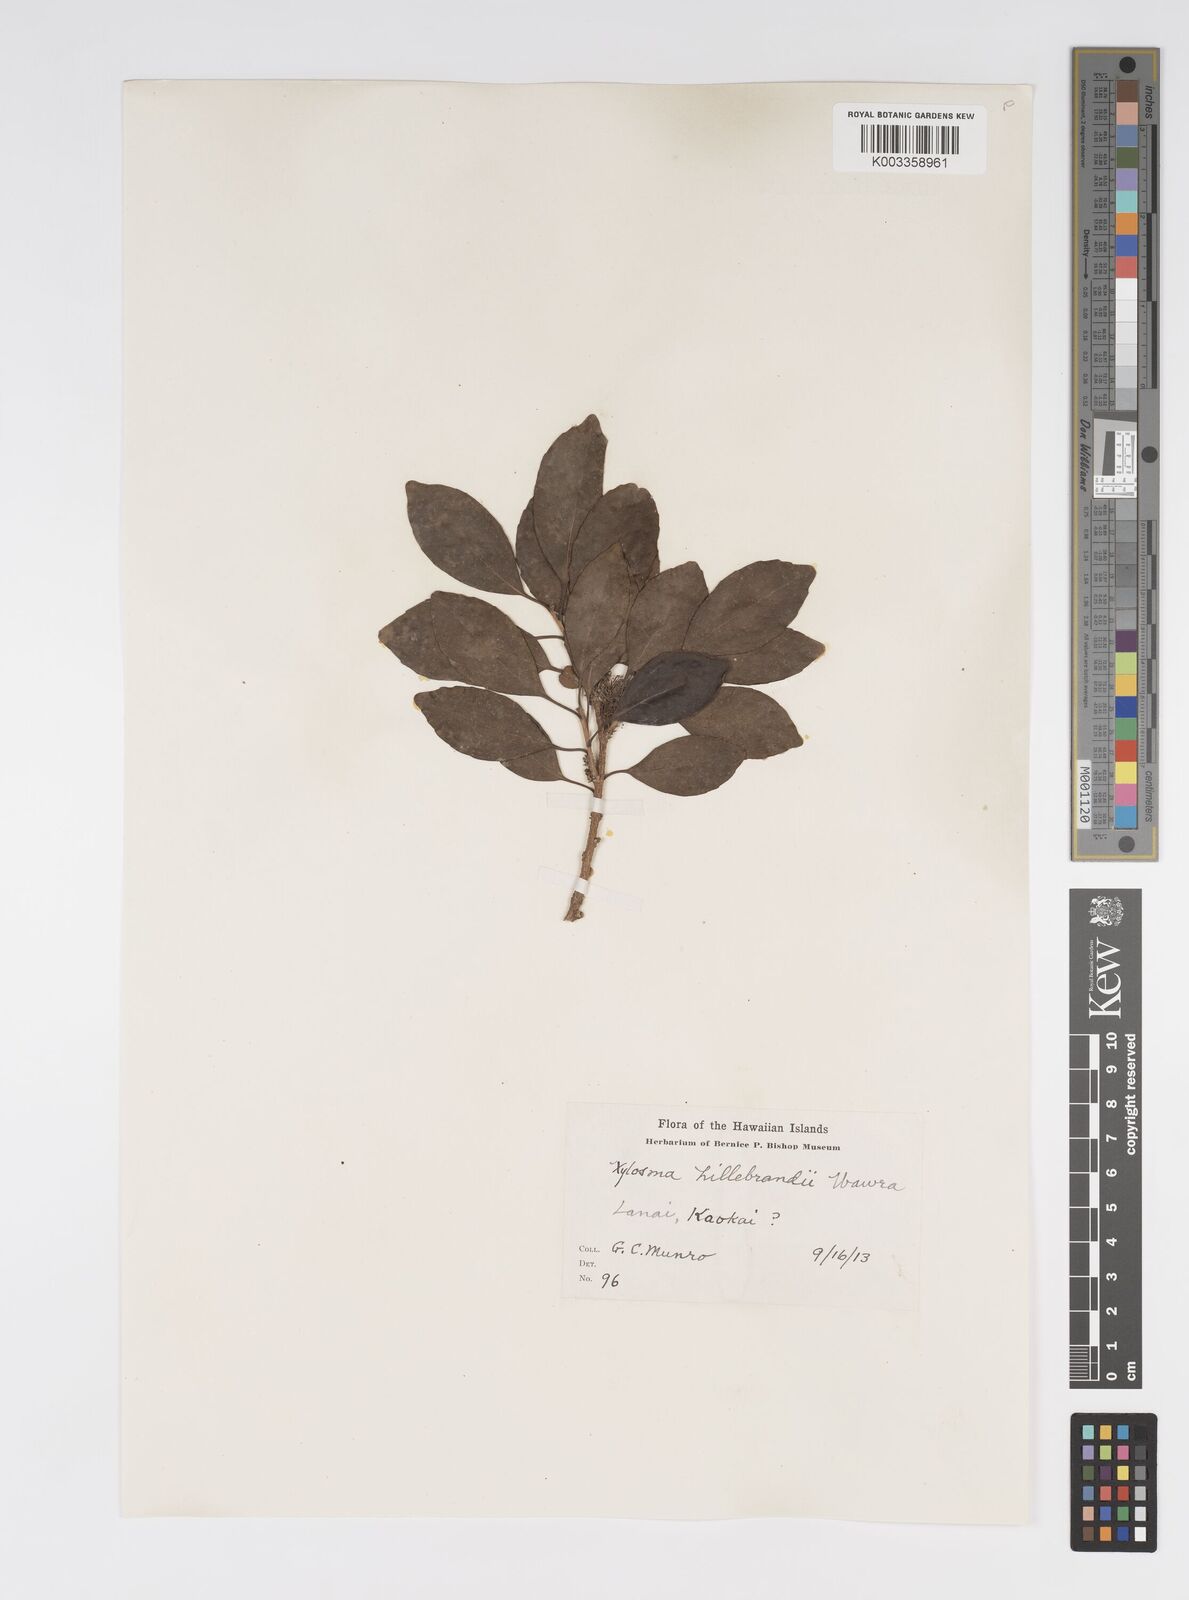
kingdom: Plantae
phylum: Tracheophyta
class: Magnoliopsida
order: Malpighiales
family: Salicaceae
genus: Xylosma
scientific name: Xylosma hawaiense
